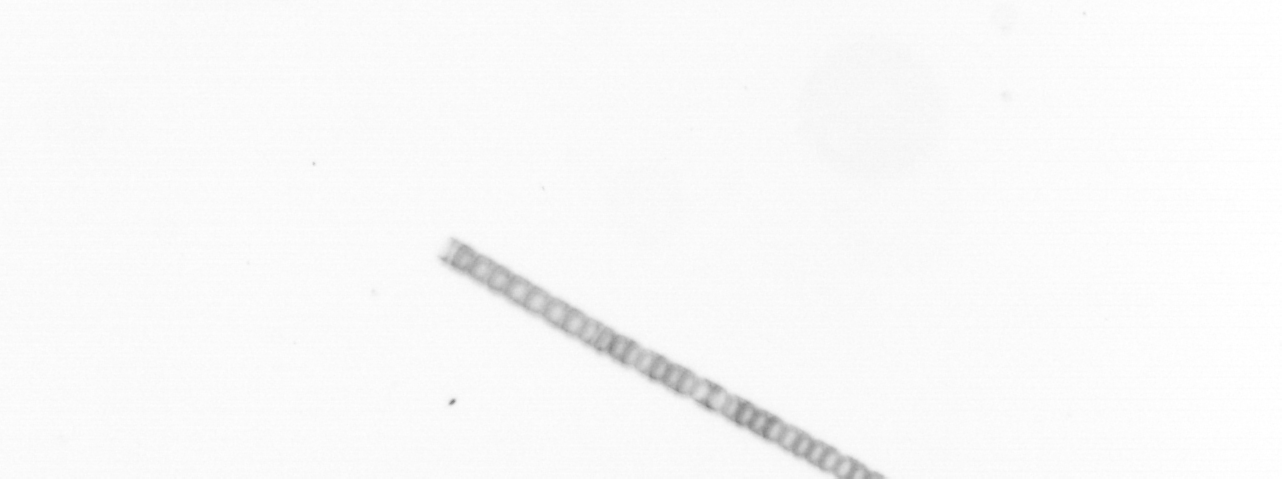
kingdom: Chromista
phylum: Ochrophyta
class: Bacillariophyceae
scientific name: Bacillariophyceae
